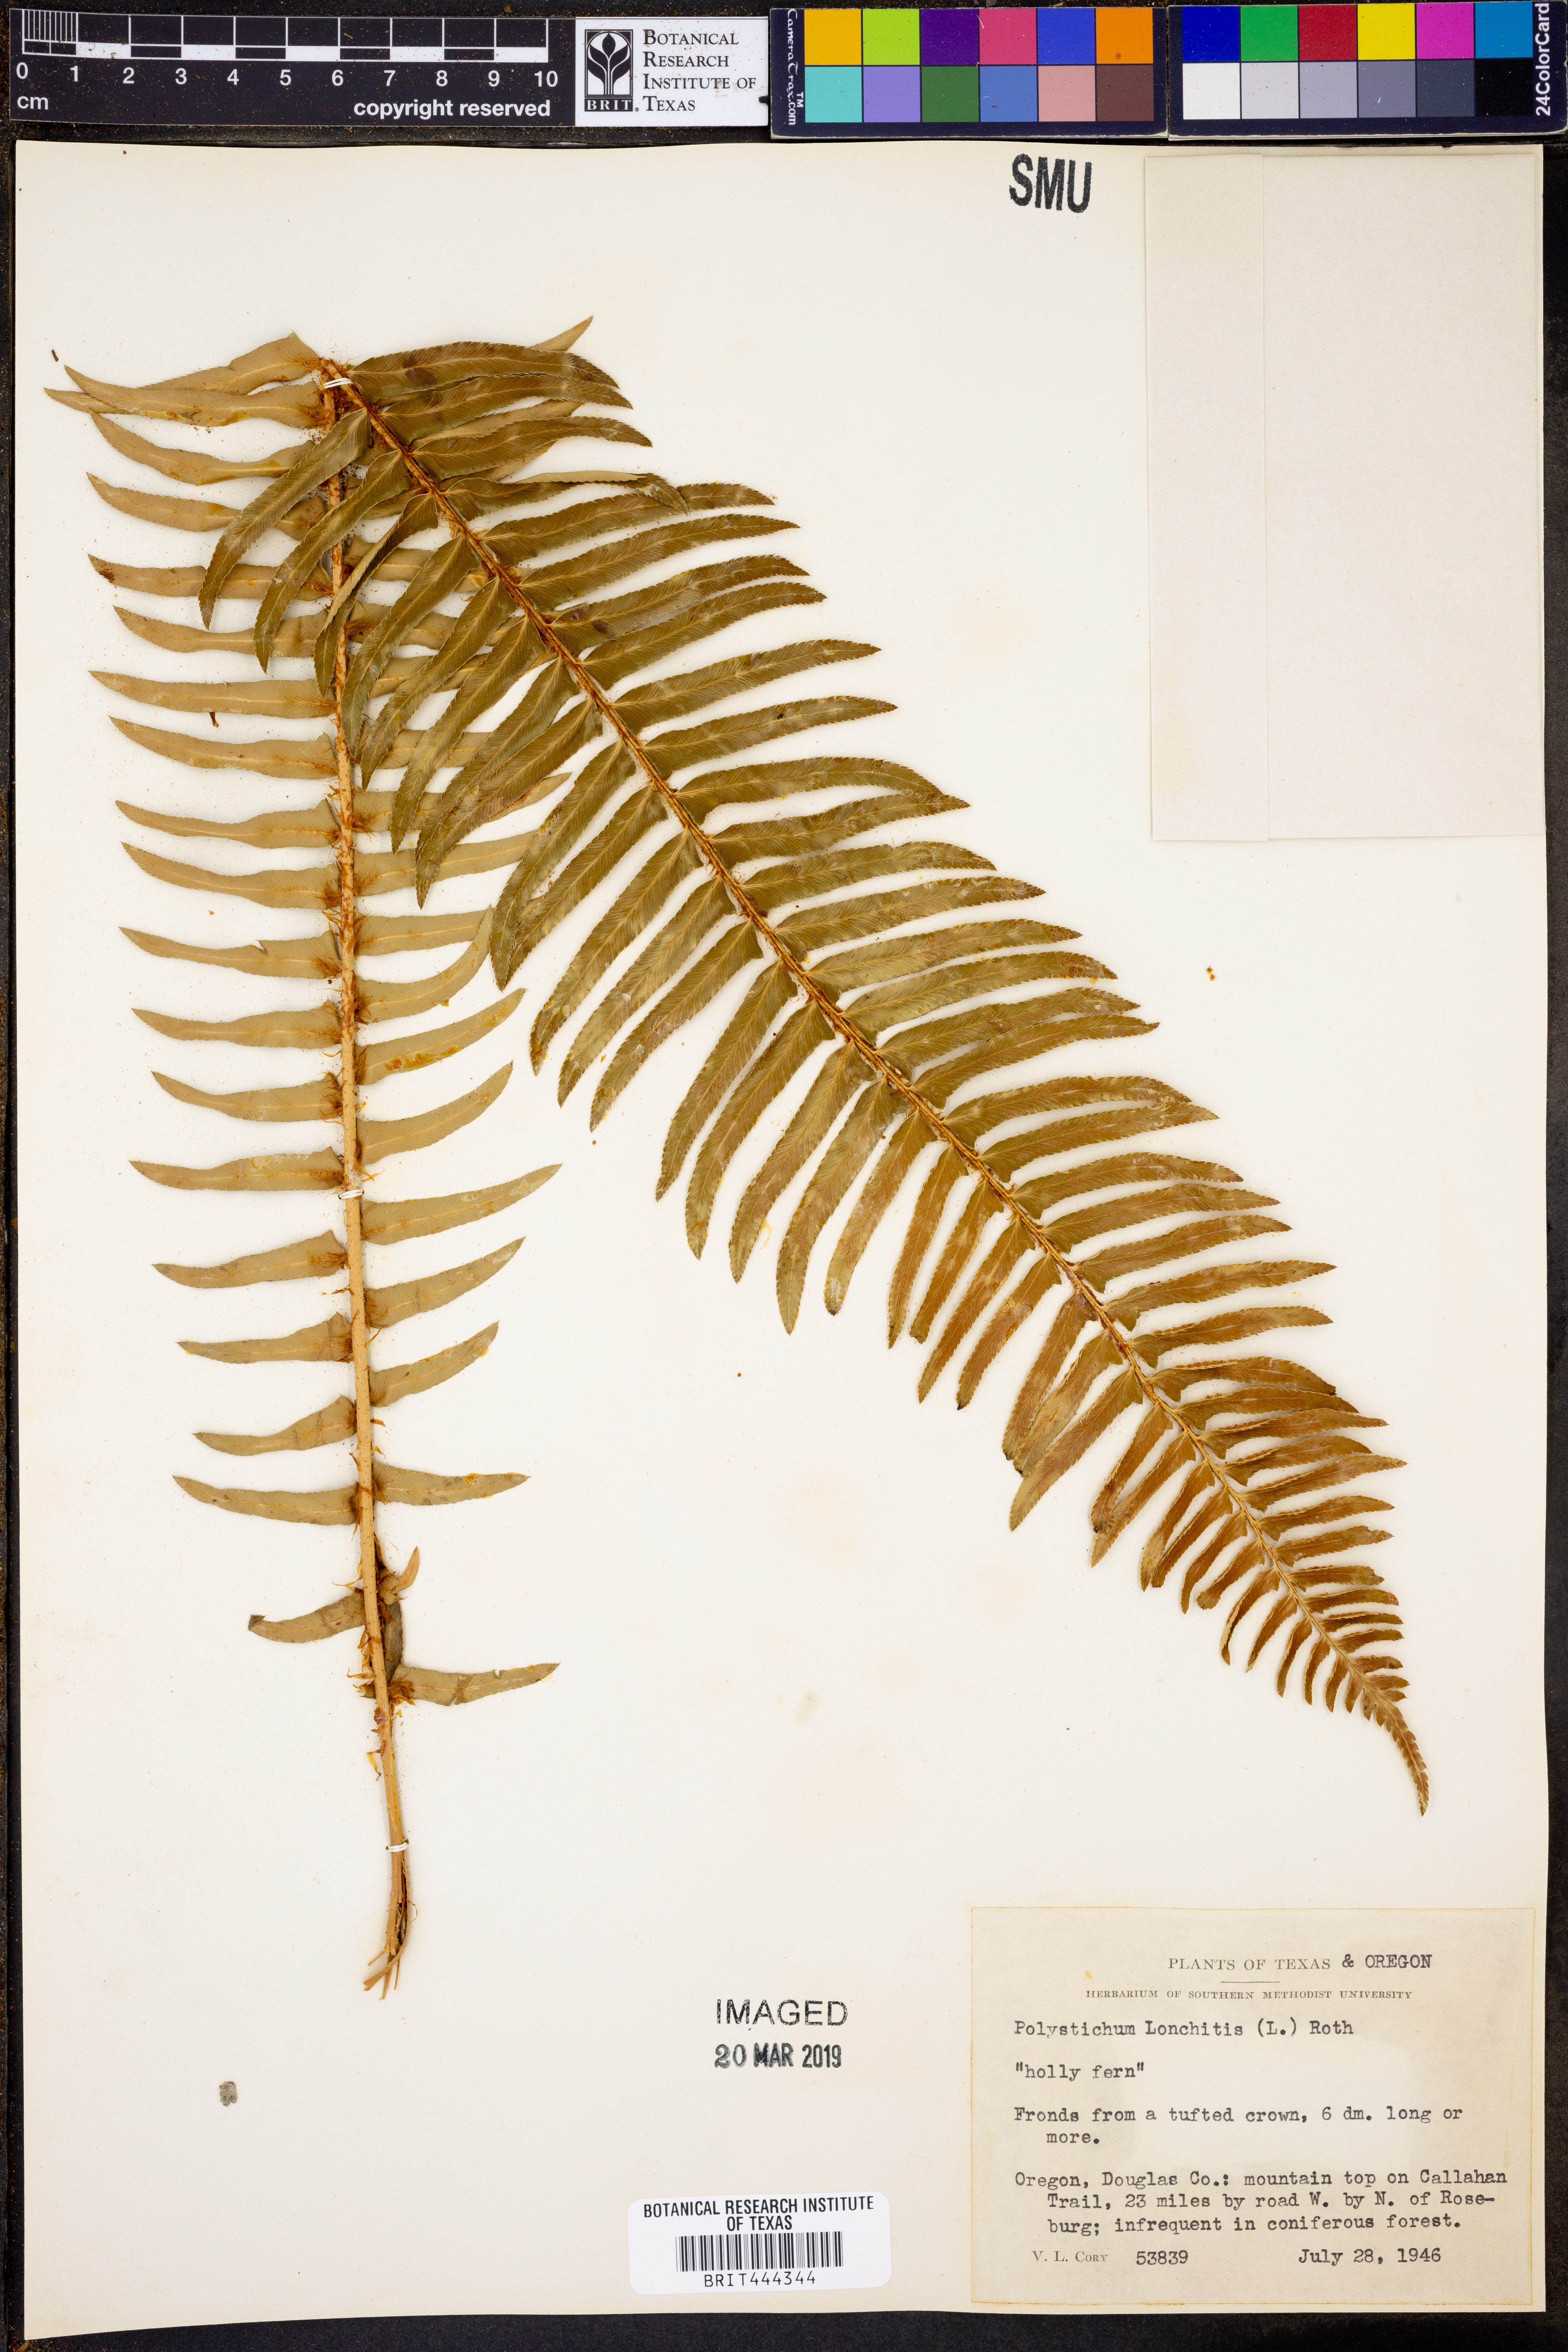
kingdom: Plantae
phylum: Tracheophyta
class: Polypodiopsida
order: Polypodiales
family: Dryopteridaceae
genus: Polystichum
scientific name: Polystichum lonchitis
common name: Holly fern
